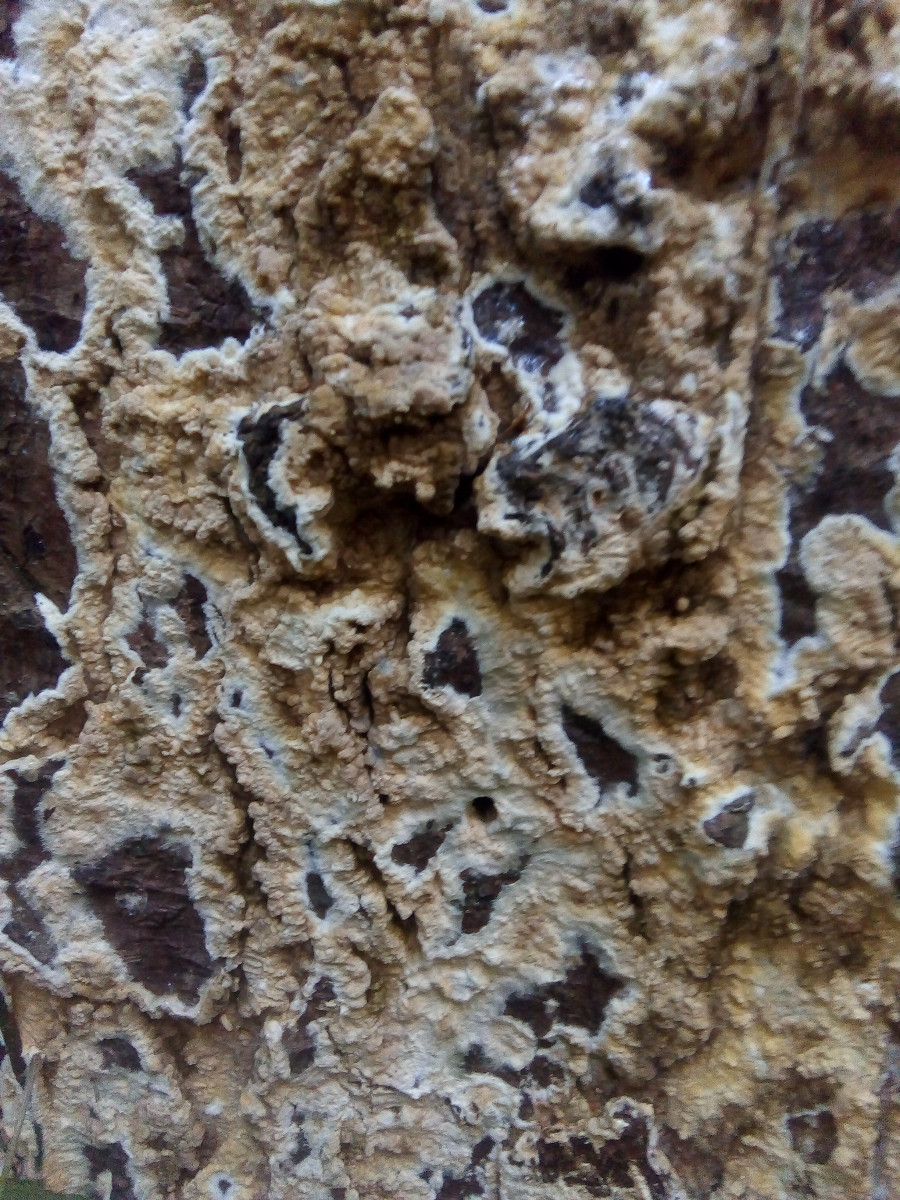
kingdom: Fungi
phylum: Basidiomycota
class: Agaricomycetes
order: Boletales
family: Coniophoraceae
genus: Coniophora
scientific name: Coniophora puteana
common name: gul tømmersvamp
